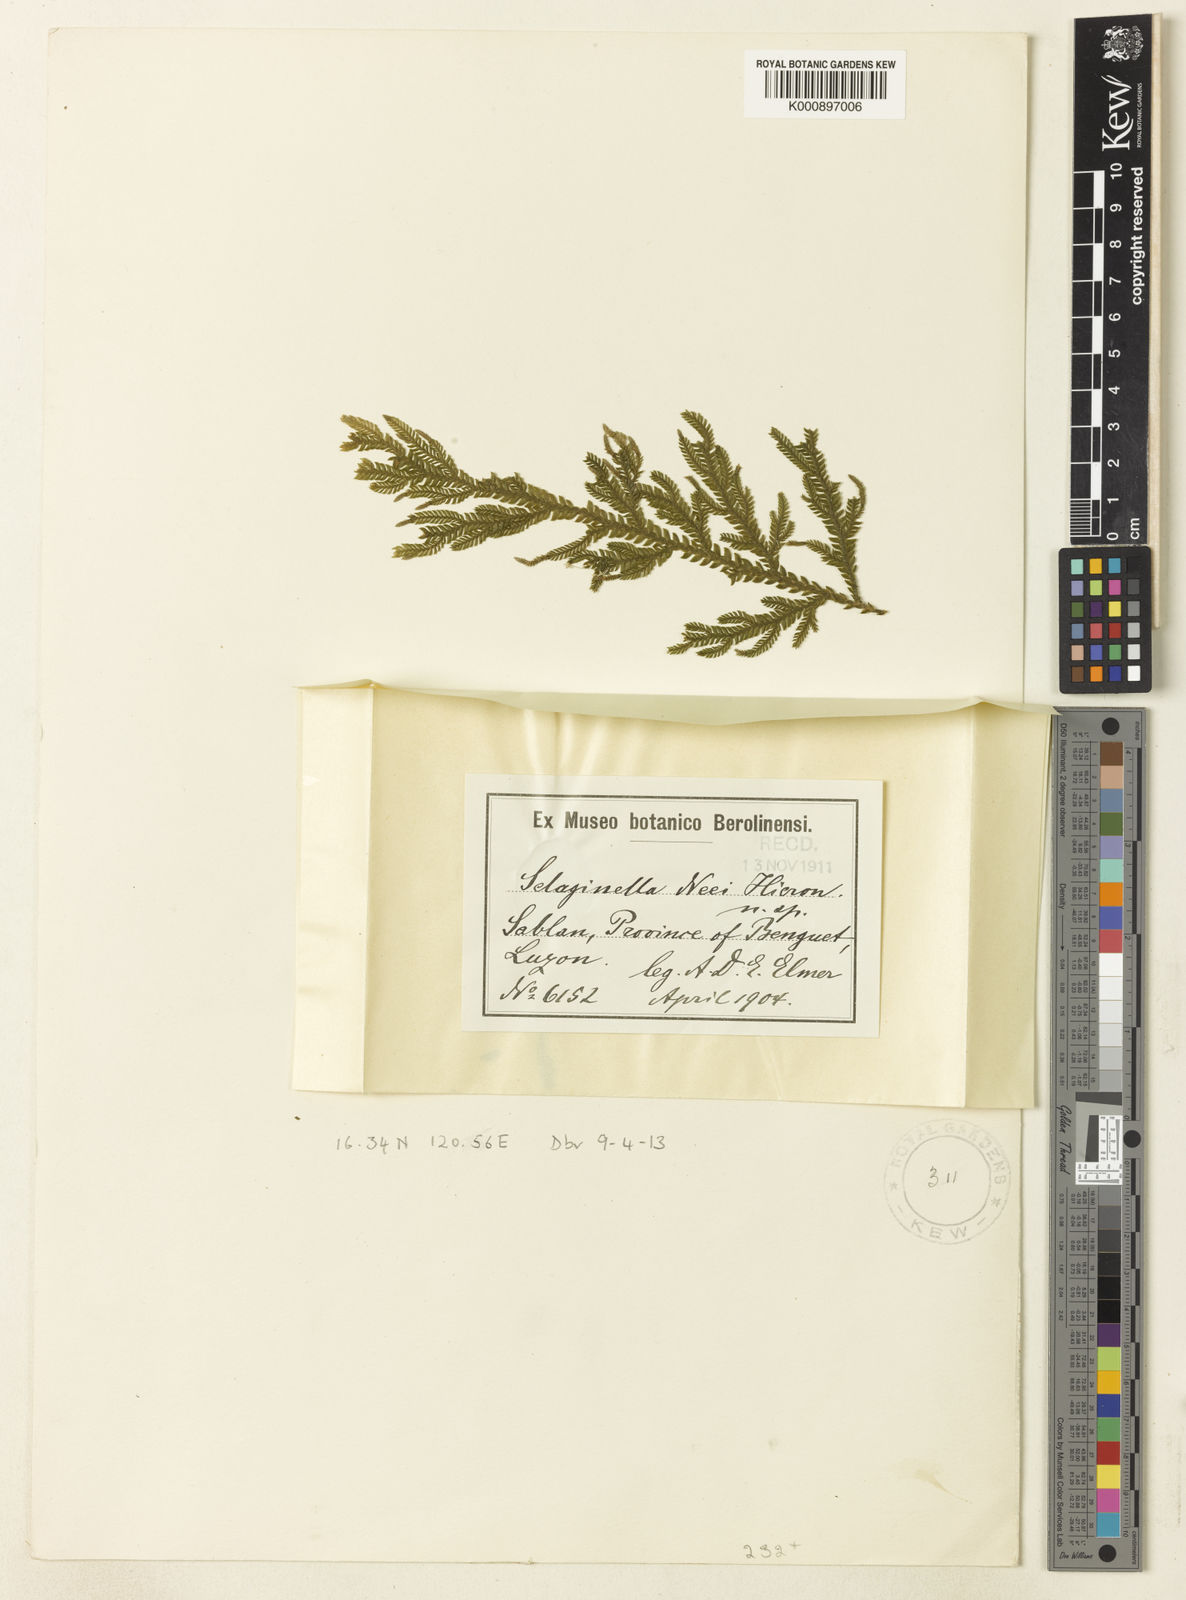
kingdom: Plantae
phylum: Tracheophyta
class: Lycopodiopsida
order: Selaginellales
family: Selaginellaceae
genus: Selaginella
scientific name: Selaginella neei
